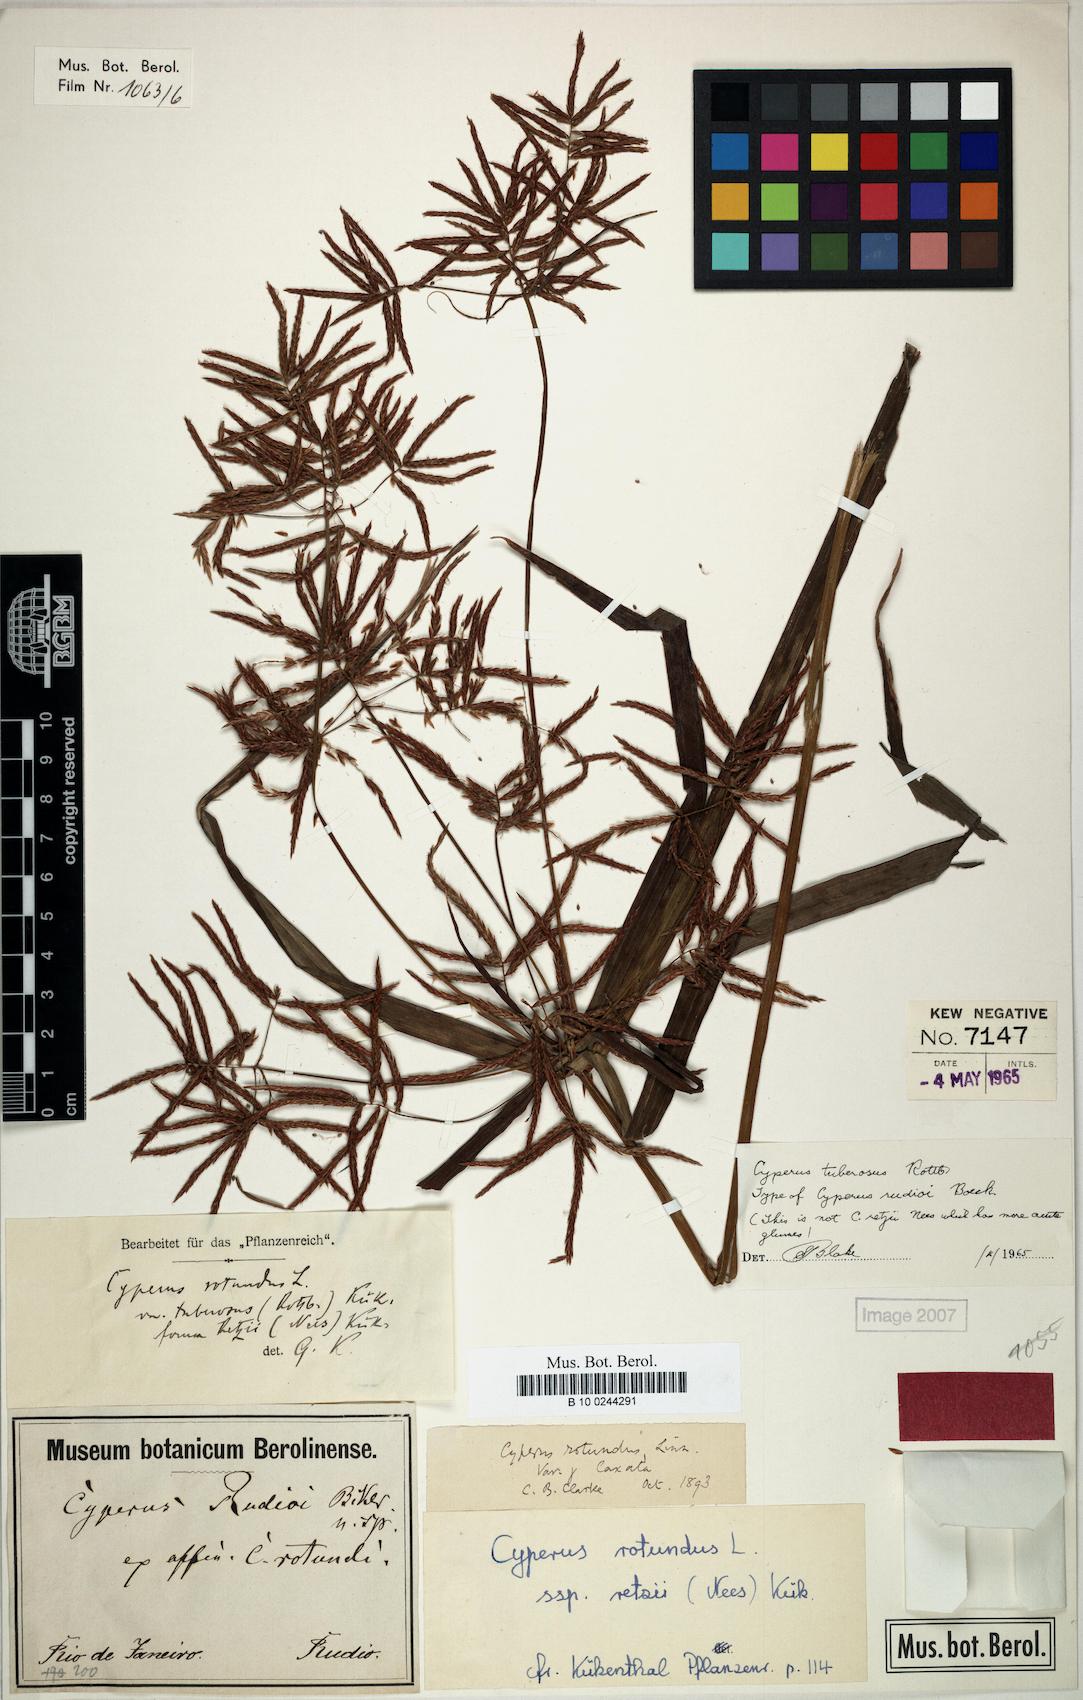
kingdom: Plantae
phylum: Tracheophyta
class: Liliopsida
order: Poales
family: Cyperaceae
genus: Cyperus
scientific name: Cyperus bifax
